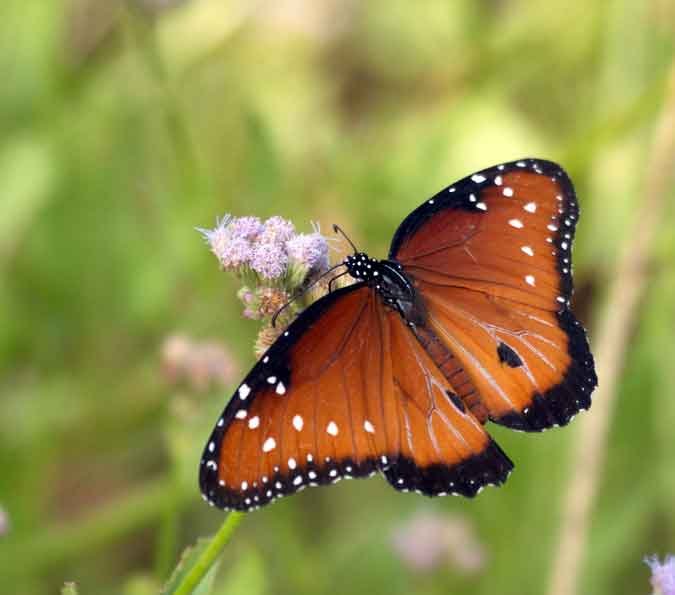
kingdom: Animalia
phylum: Arthropoda
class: Insecta
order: Lepidoptera
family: Nymphalidae
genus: Danaus
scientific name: Danaus gilippus
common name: Queen
